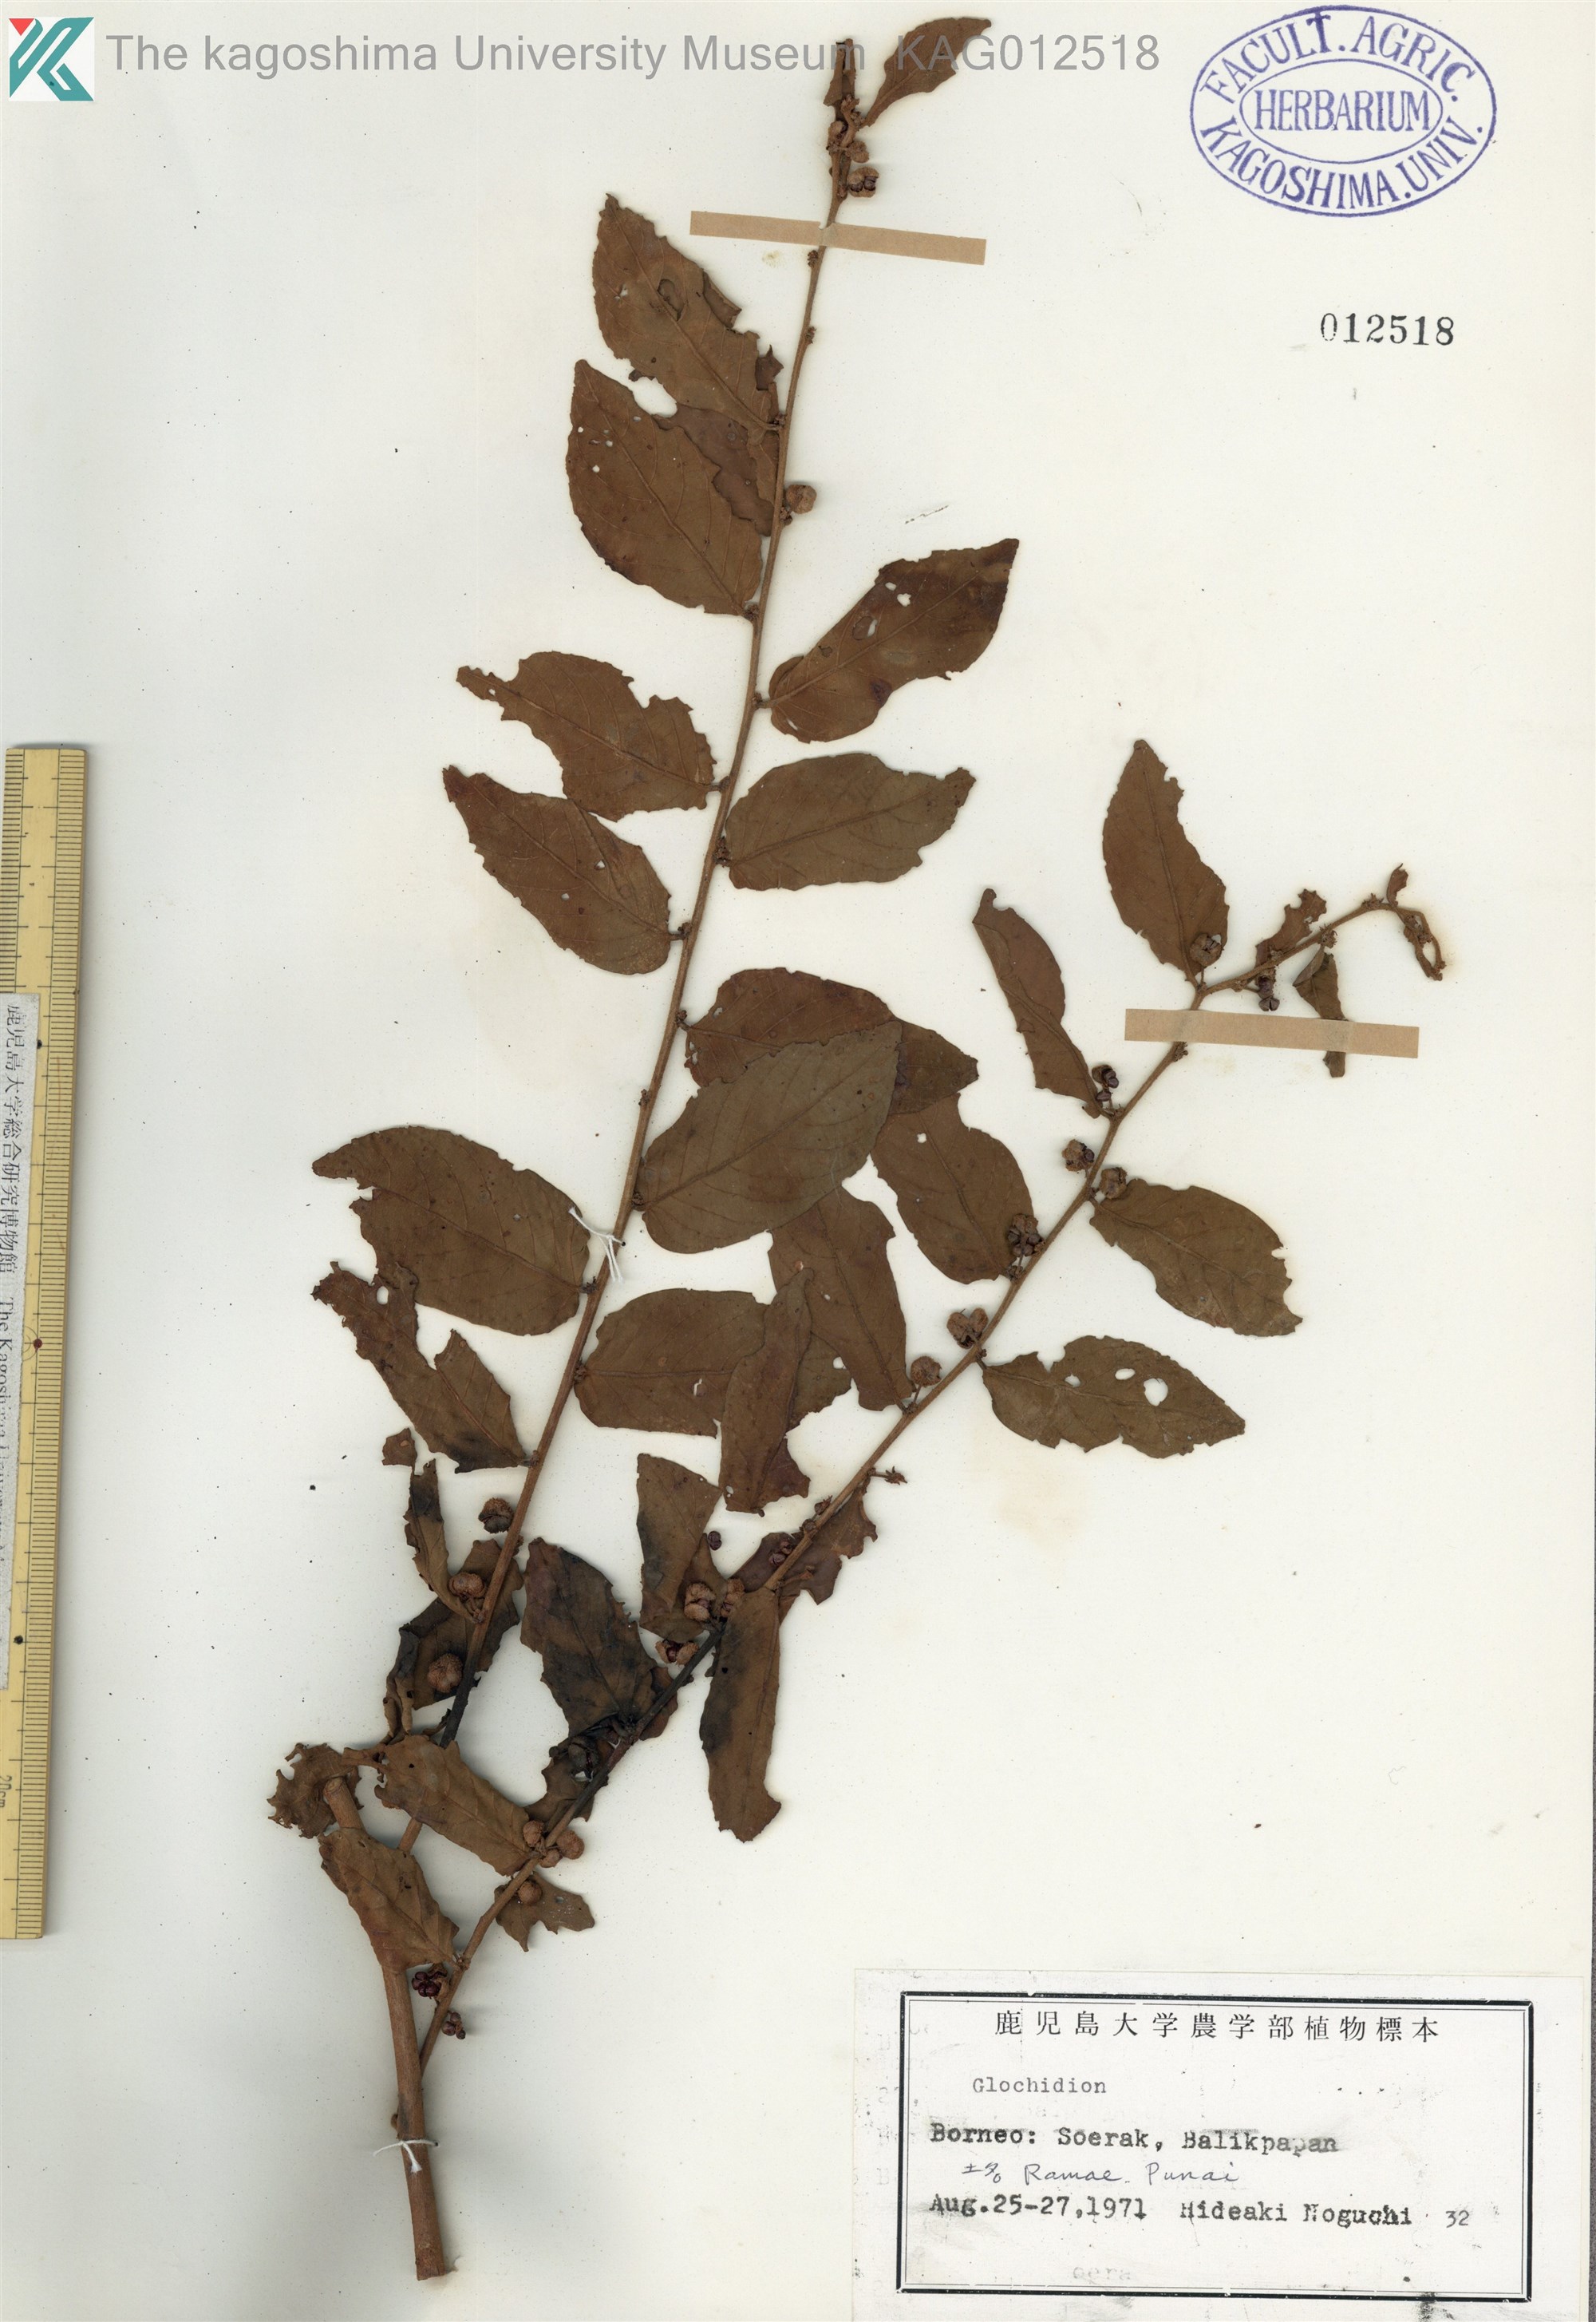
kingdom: Plantae
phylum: Tracheophyta
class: Magnoliopsida
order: Malpighiales
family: Phyllanthaceae
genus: Glochidion
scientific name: Glochidion obscurum
